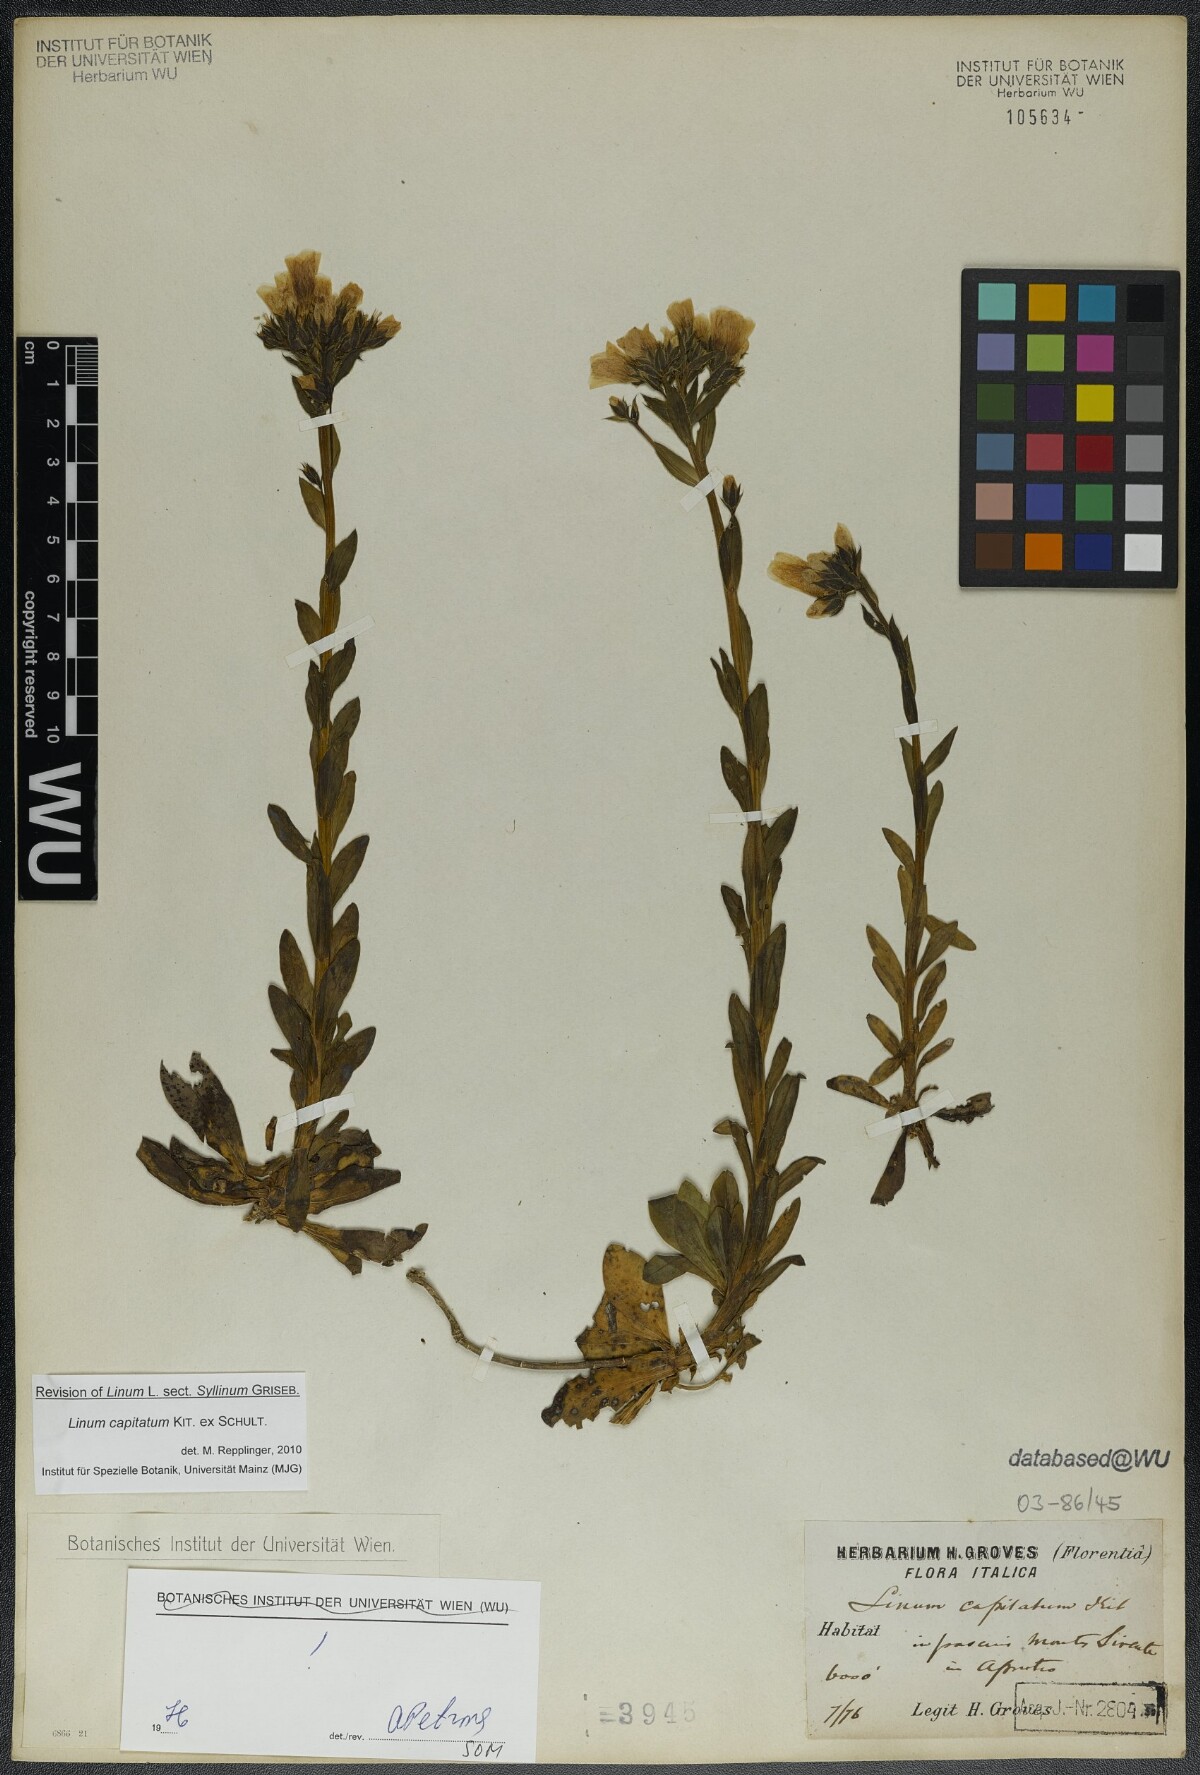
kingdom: Plantae
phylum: Tracheophyta
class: Magnoliopsida
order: Malpighiales
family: Linaceae
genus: Linum
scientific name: Linum capitatum
